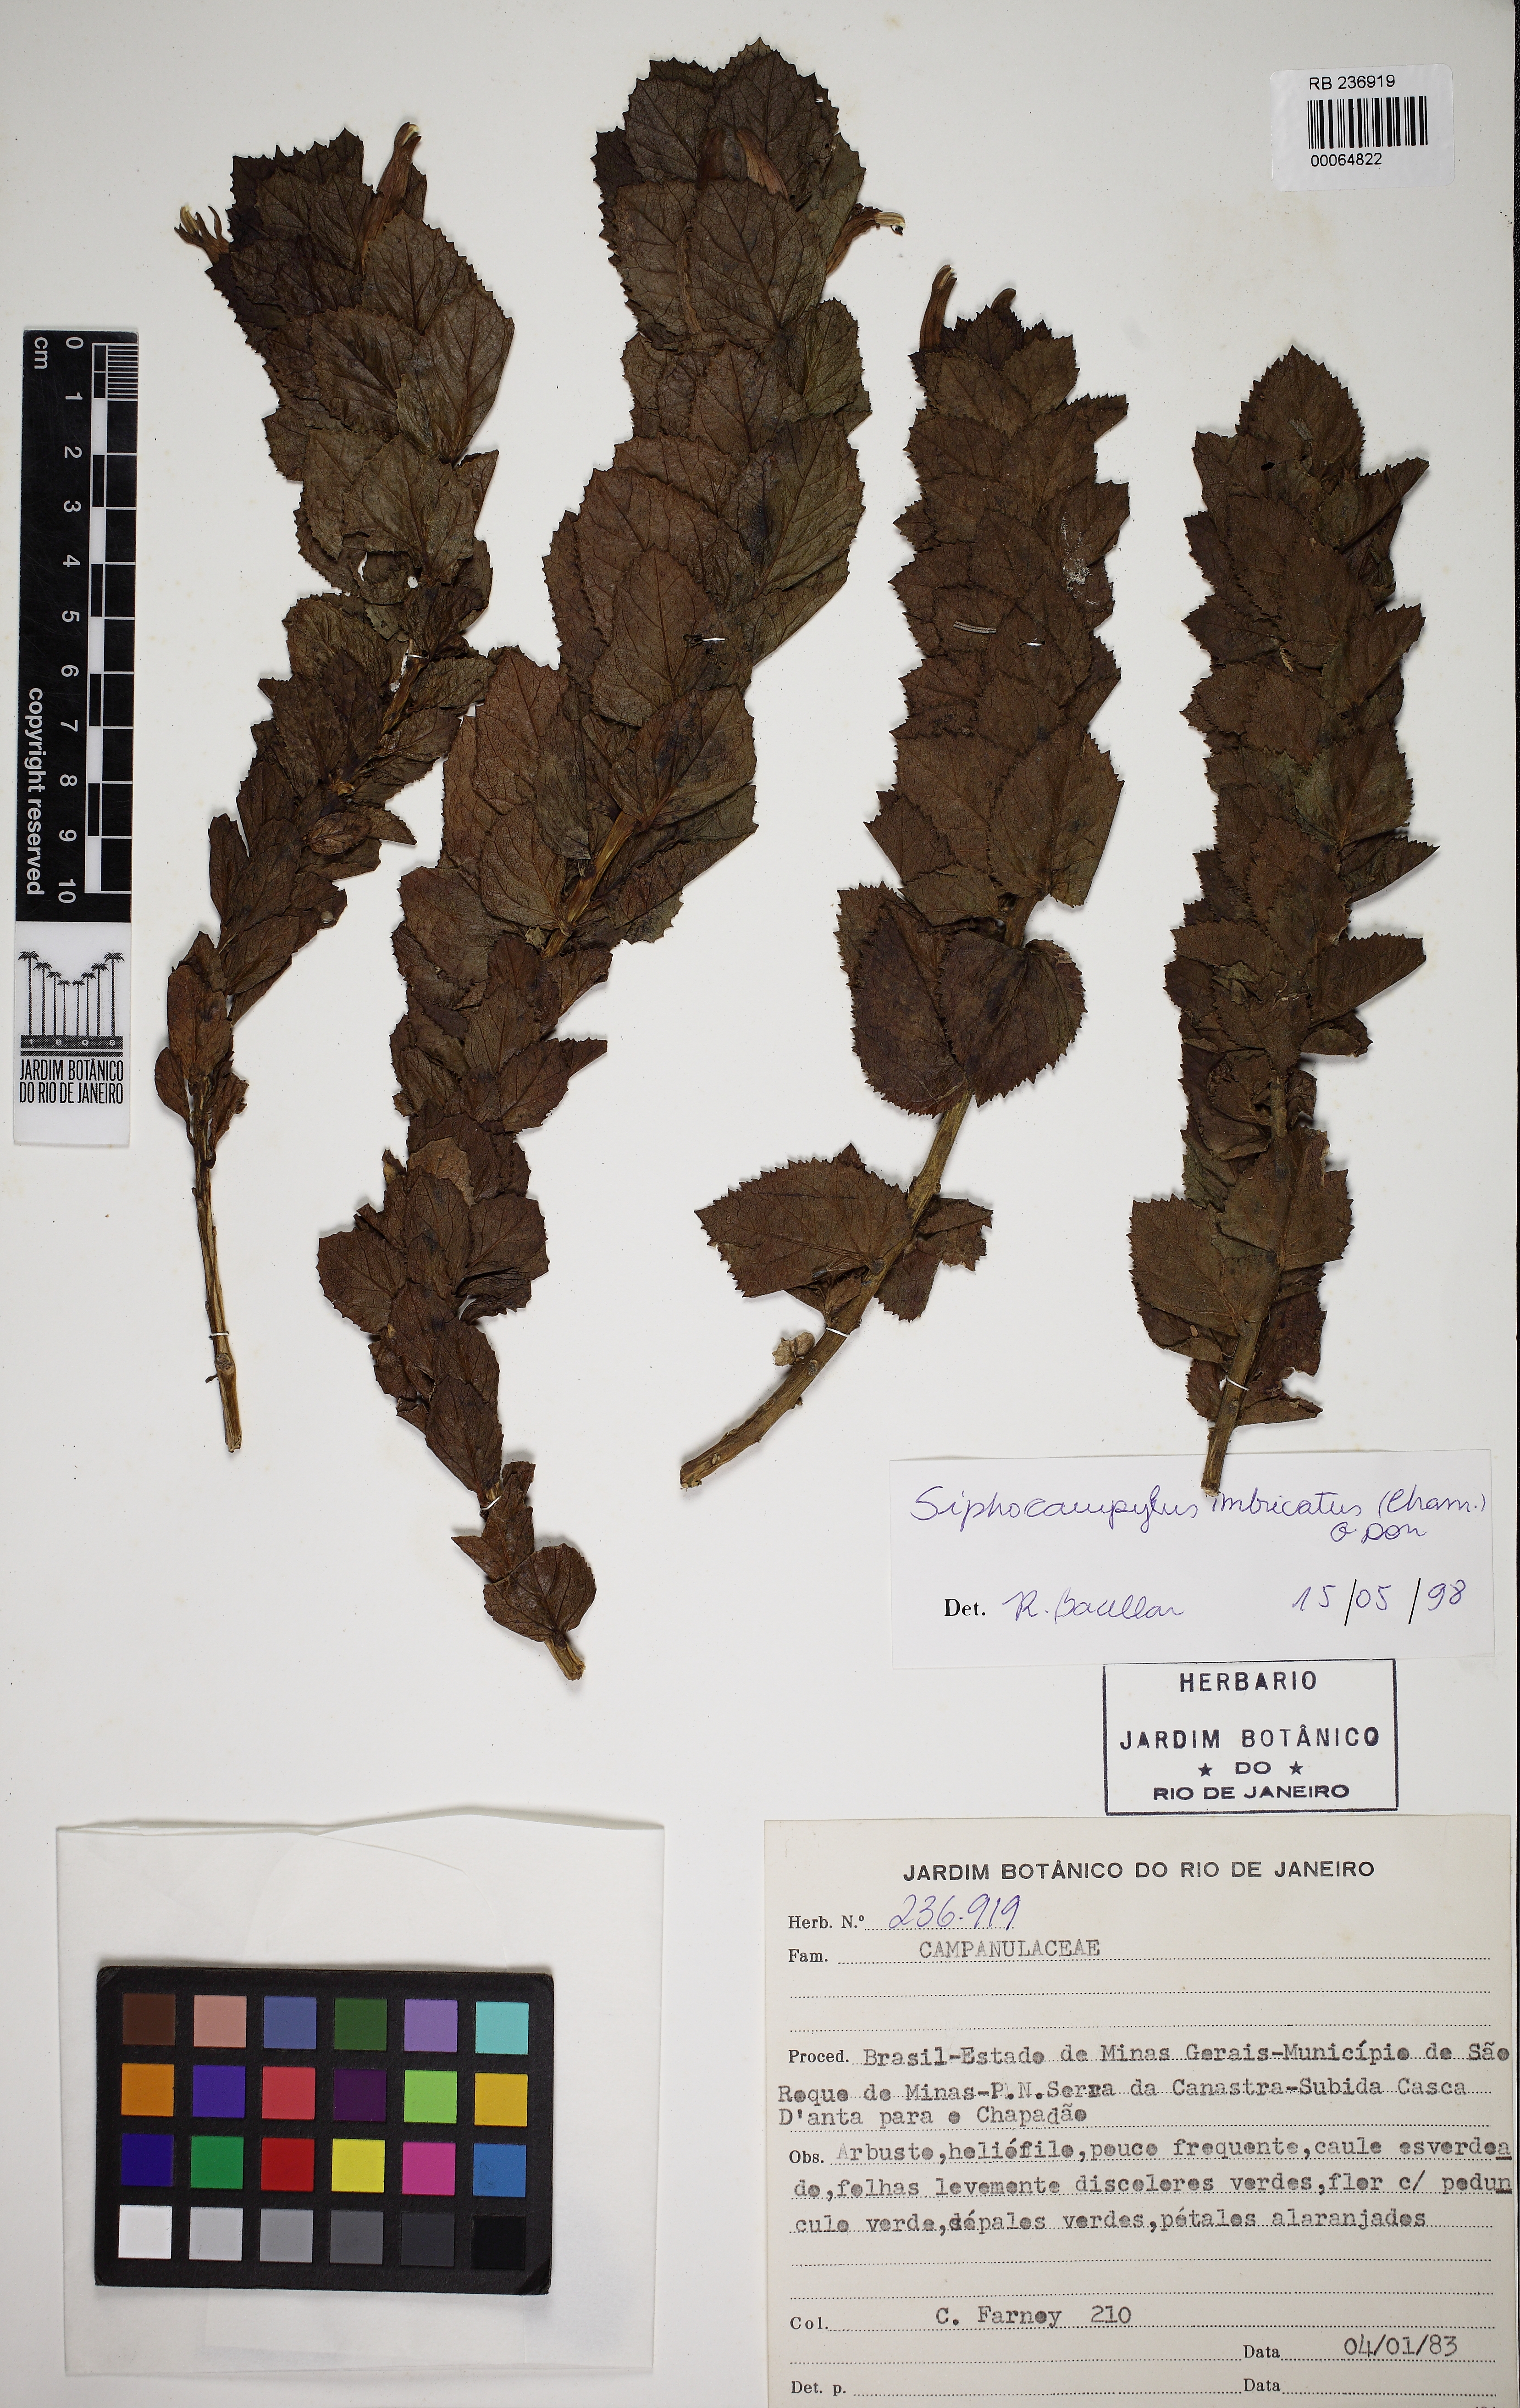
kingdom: Plantae
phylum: Tracheophyta
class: Magnoliopsida
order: Asterales
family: Campanulaceae
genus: Siphocampylus
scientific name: Siphocampylus imbricatus
